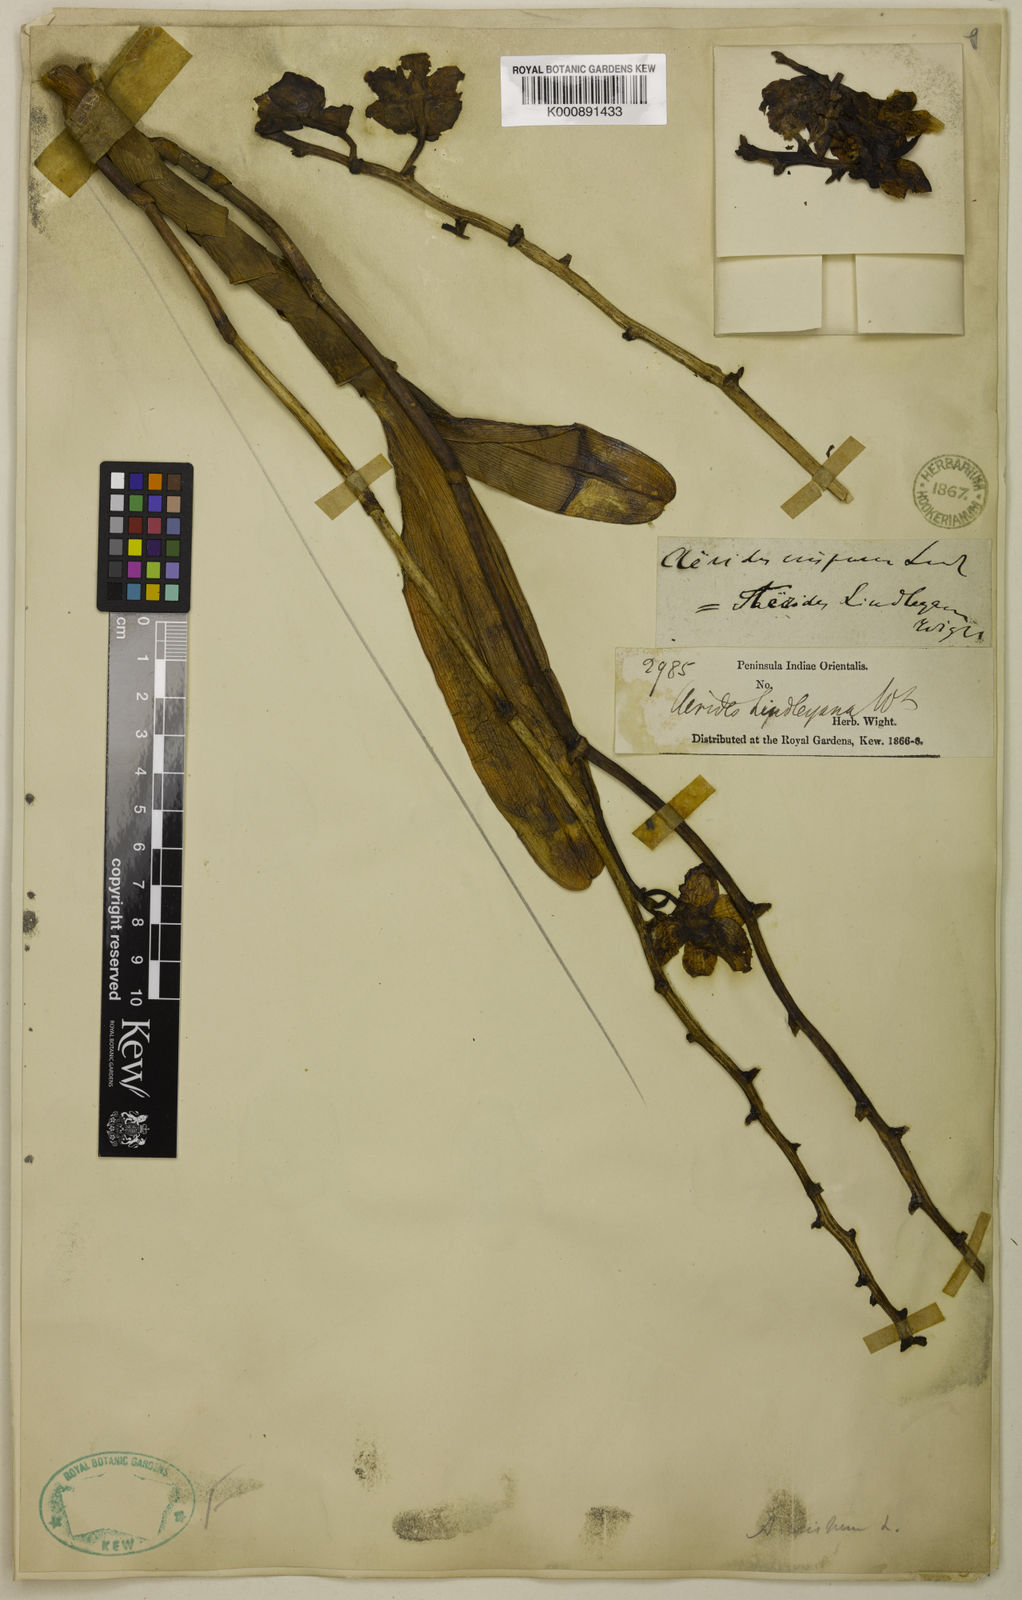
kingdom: Plantae
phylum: Tracheophyta
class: Liliopsida
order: Asparagales
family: Orchidaceae
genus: Aerides
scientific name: Aerides crispa
